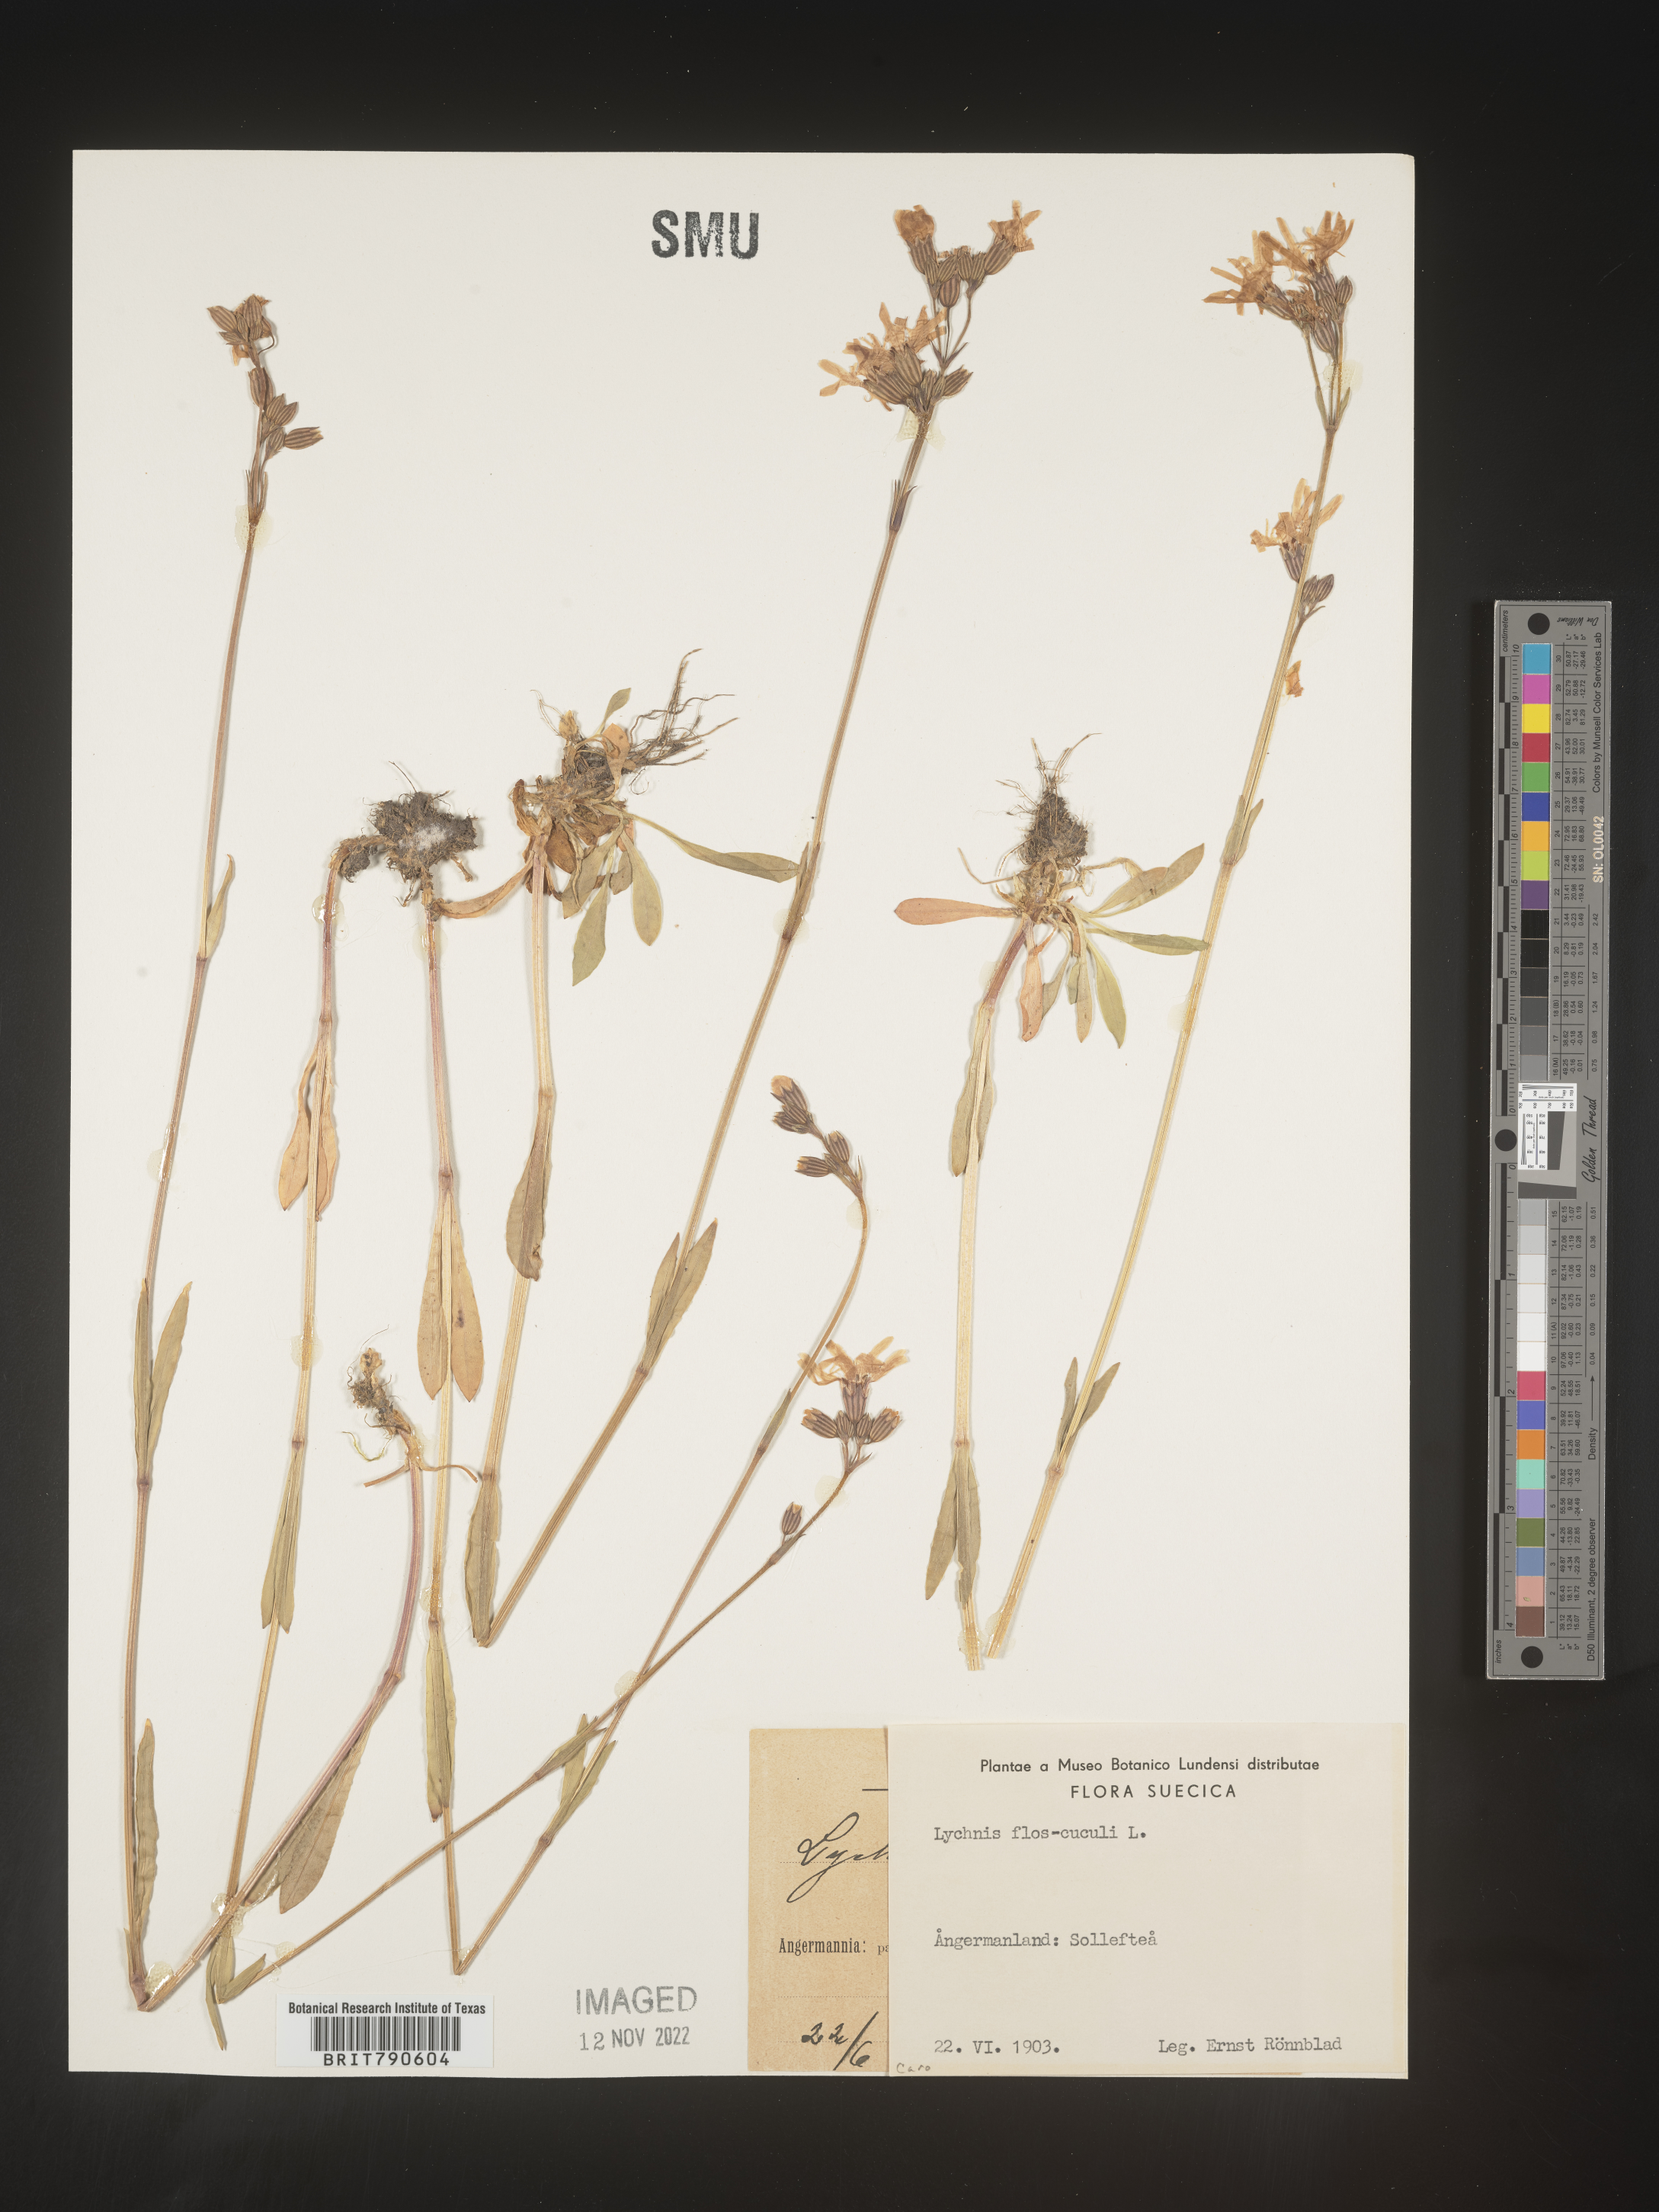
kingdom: Plantae
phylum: Tracheophyta
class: Magnoliopsida
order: Caryophyllales
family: Caryophyllaceae
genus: Silene
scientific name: Silene
